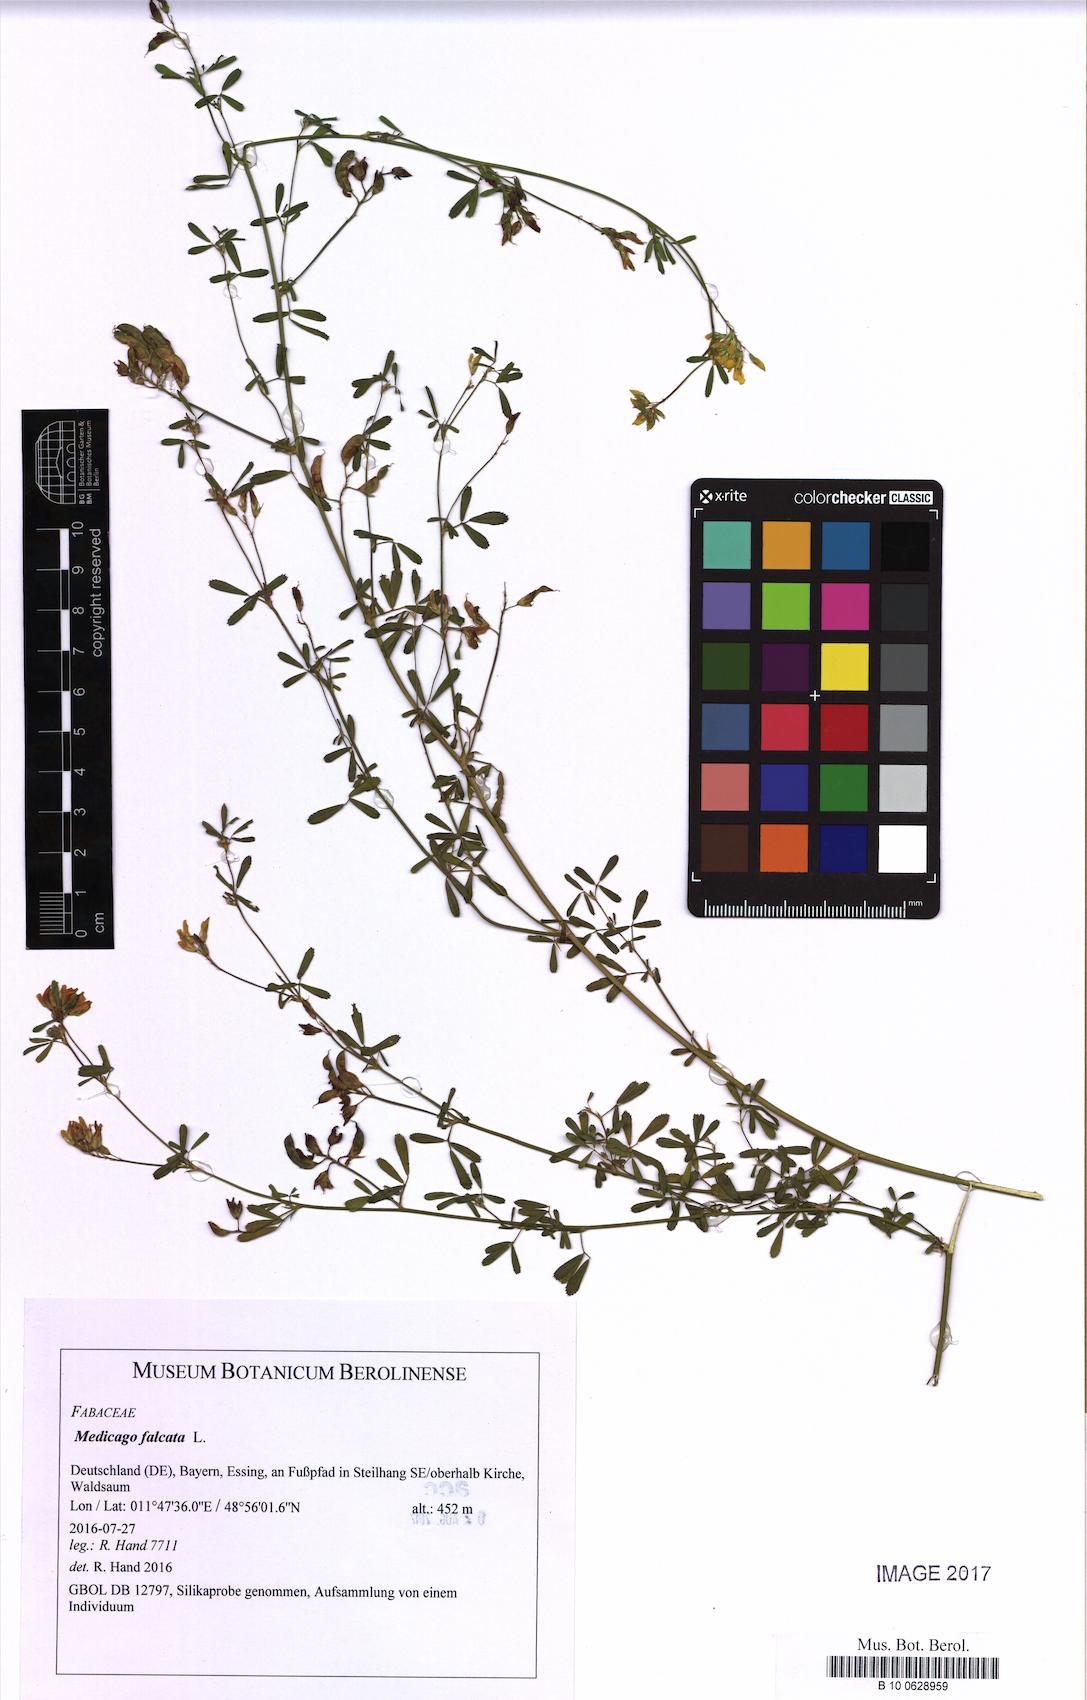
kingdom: Plantae
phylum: Tracheophyta
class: Magnoliopsida
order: Fabales
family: Fabaceae
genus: Medicago
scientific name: Medicago falcata
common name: Sickle medick
